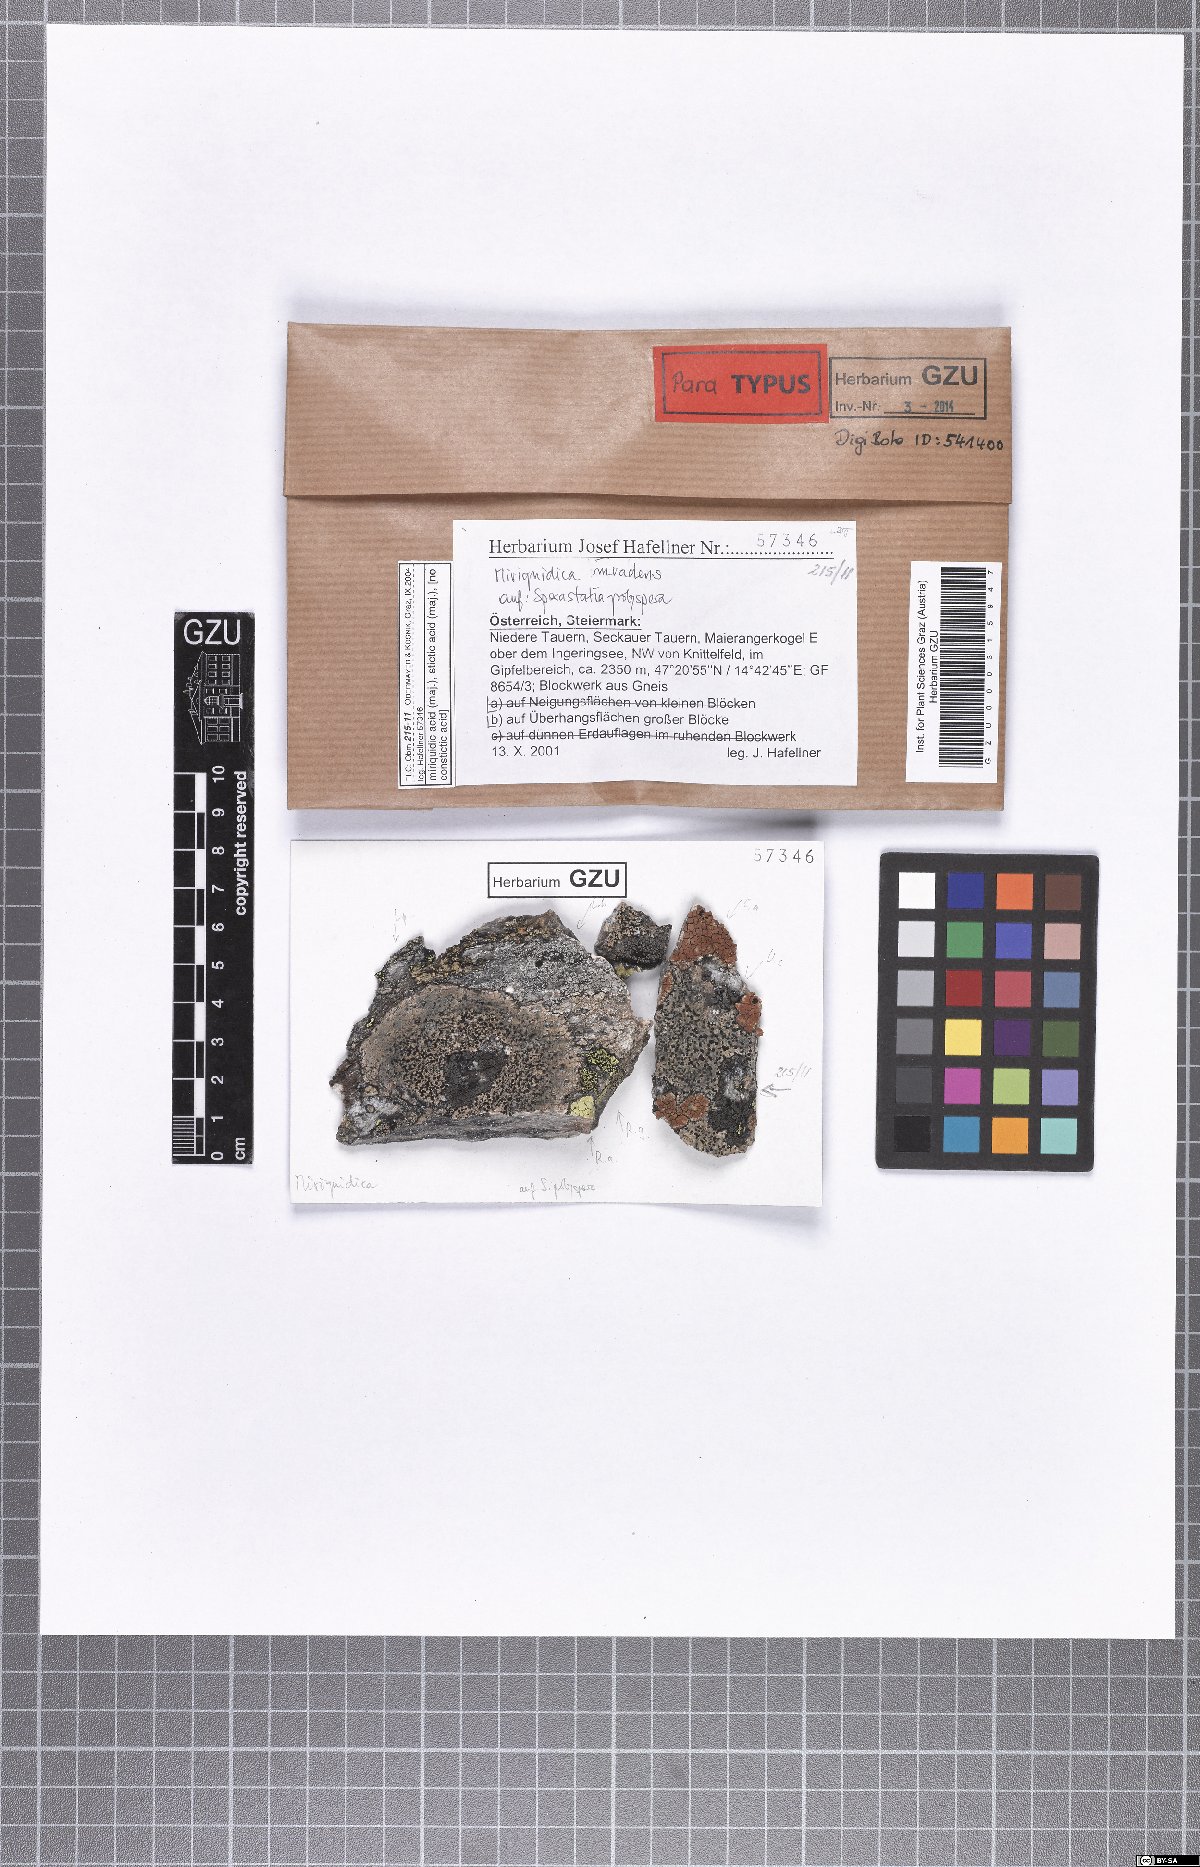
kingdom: Fungi
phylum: Ascomycota
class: Lecanoromycetes
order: Lecanorales
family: Lecanoraceae
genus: Miriquidica
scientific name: Miriquidica invadens
